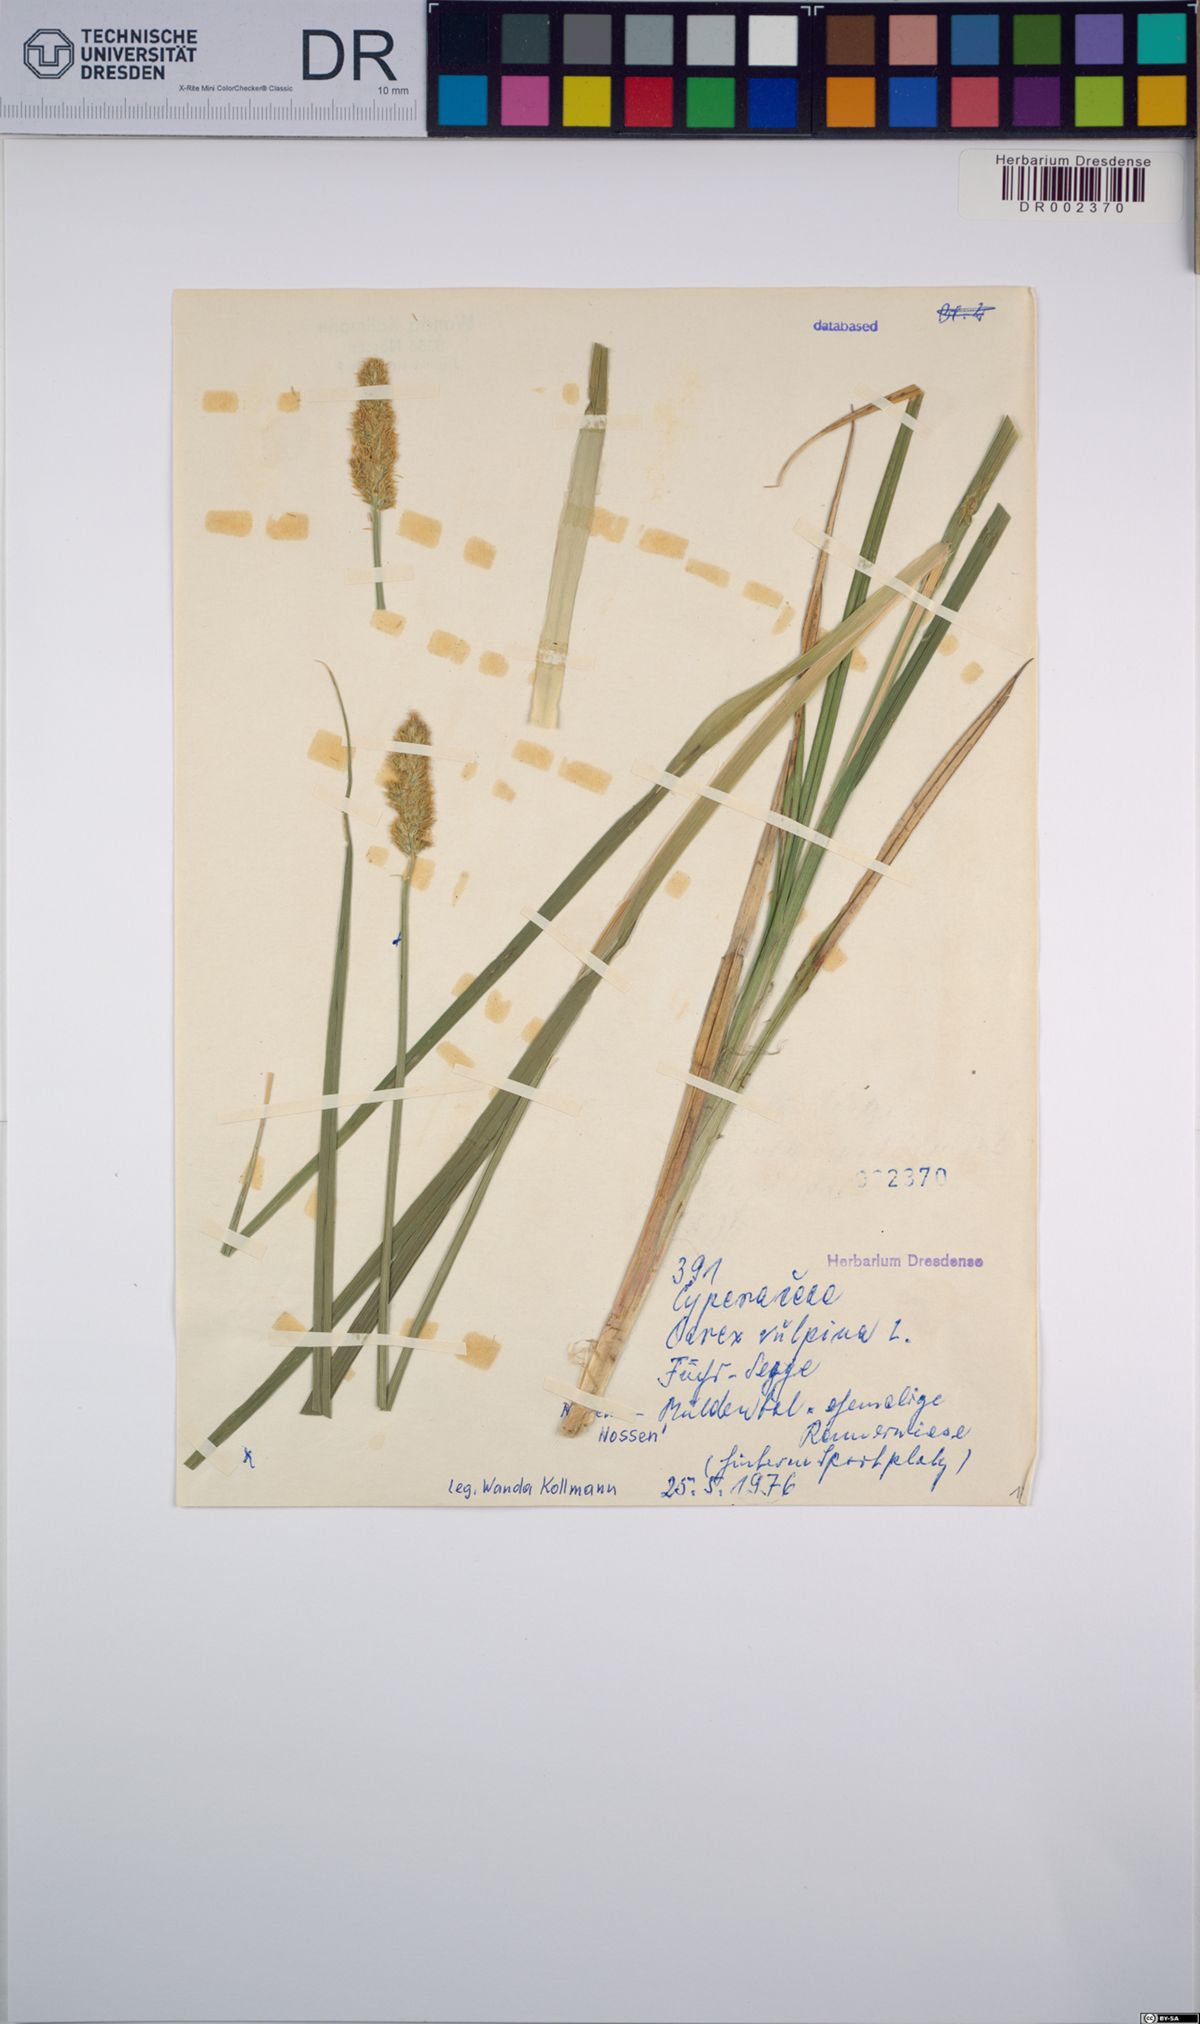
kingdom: Plantae
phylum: Tracheophyta
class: Liliopsida
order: Poales
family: Cyperaceae
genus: Carex
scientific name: Carex vulpina
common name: True fox-sedge
